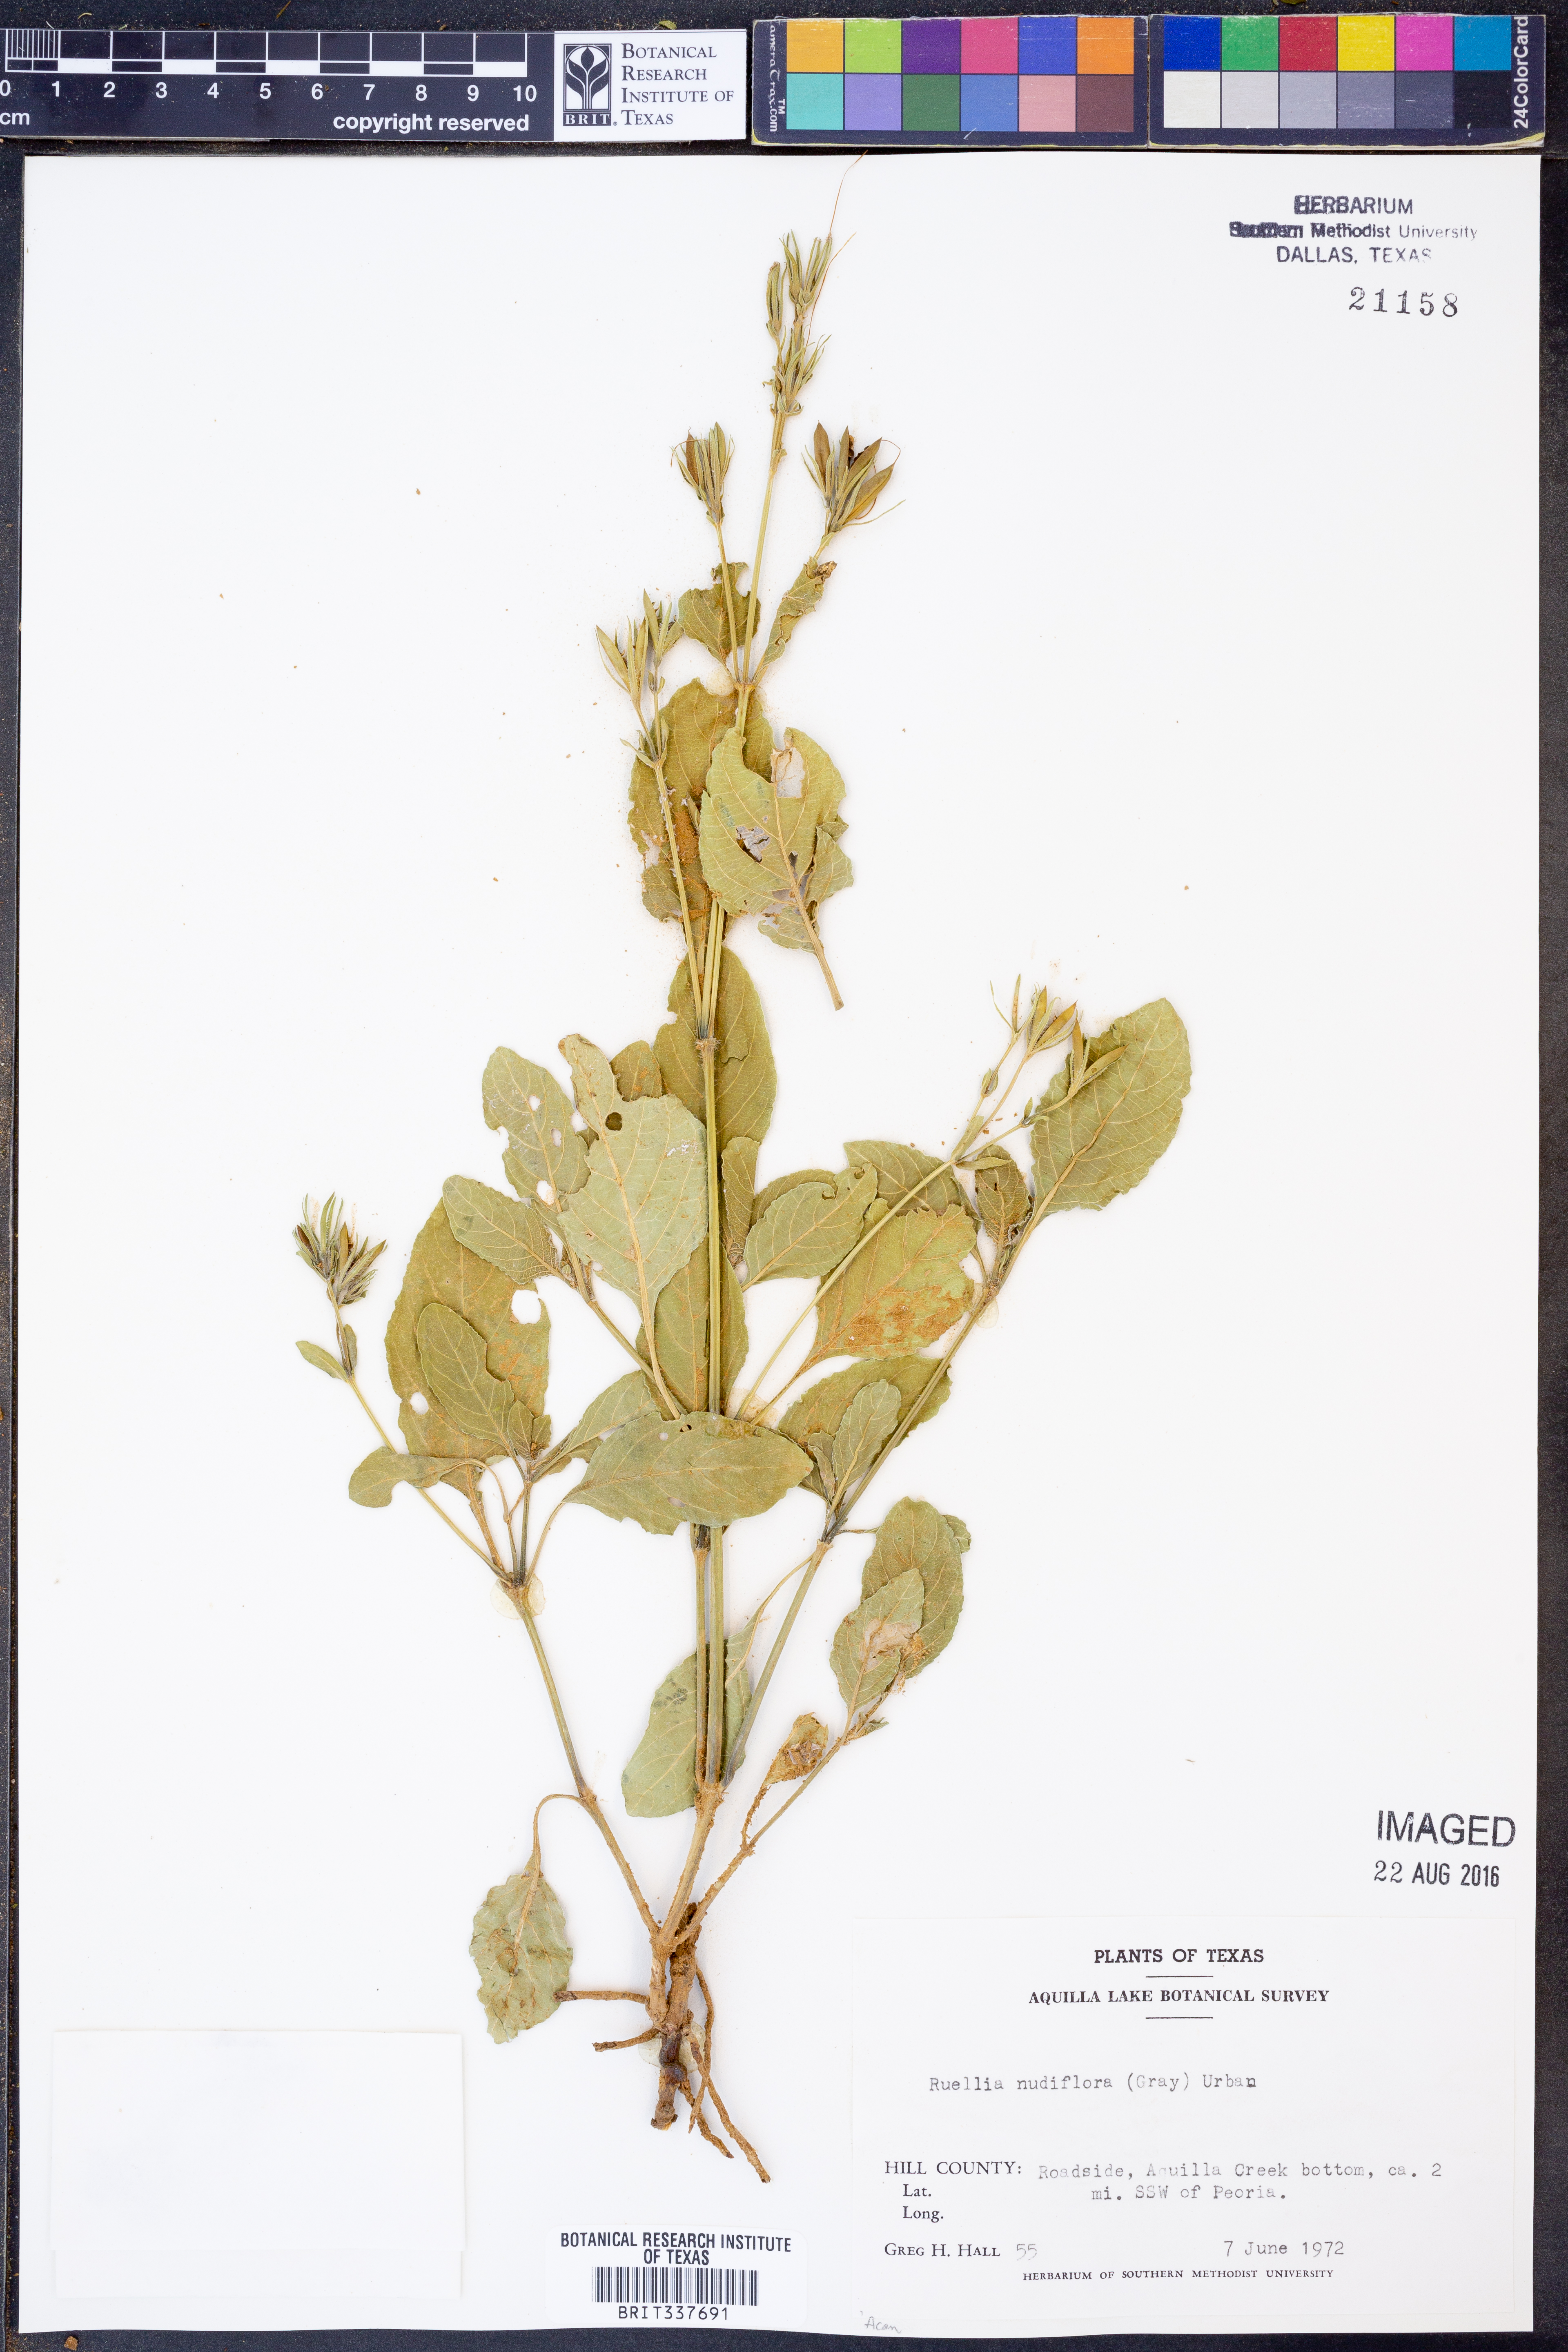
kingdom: Plantae
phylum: Tracheophyta
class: Magnoliopsida
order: Lamiales
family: Acanthaceae
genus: Ruellia
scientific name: Ruellia ciliatiflora
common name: Hairyflower wild petunia
